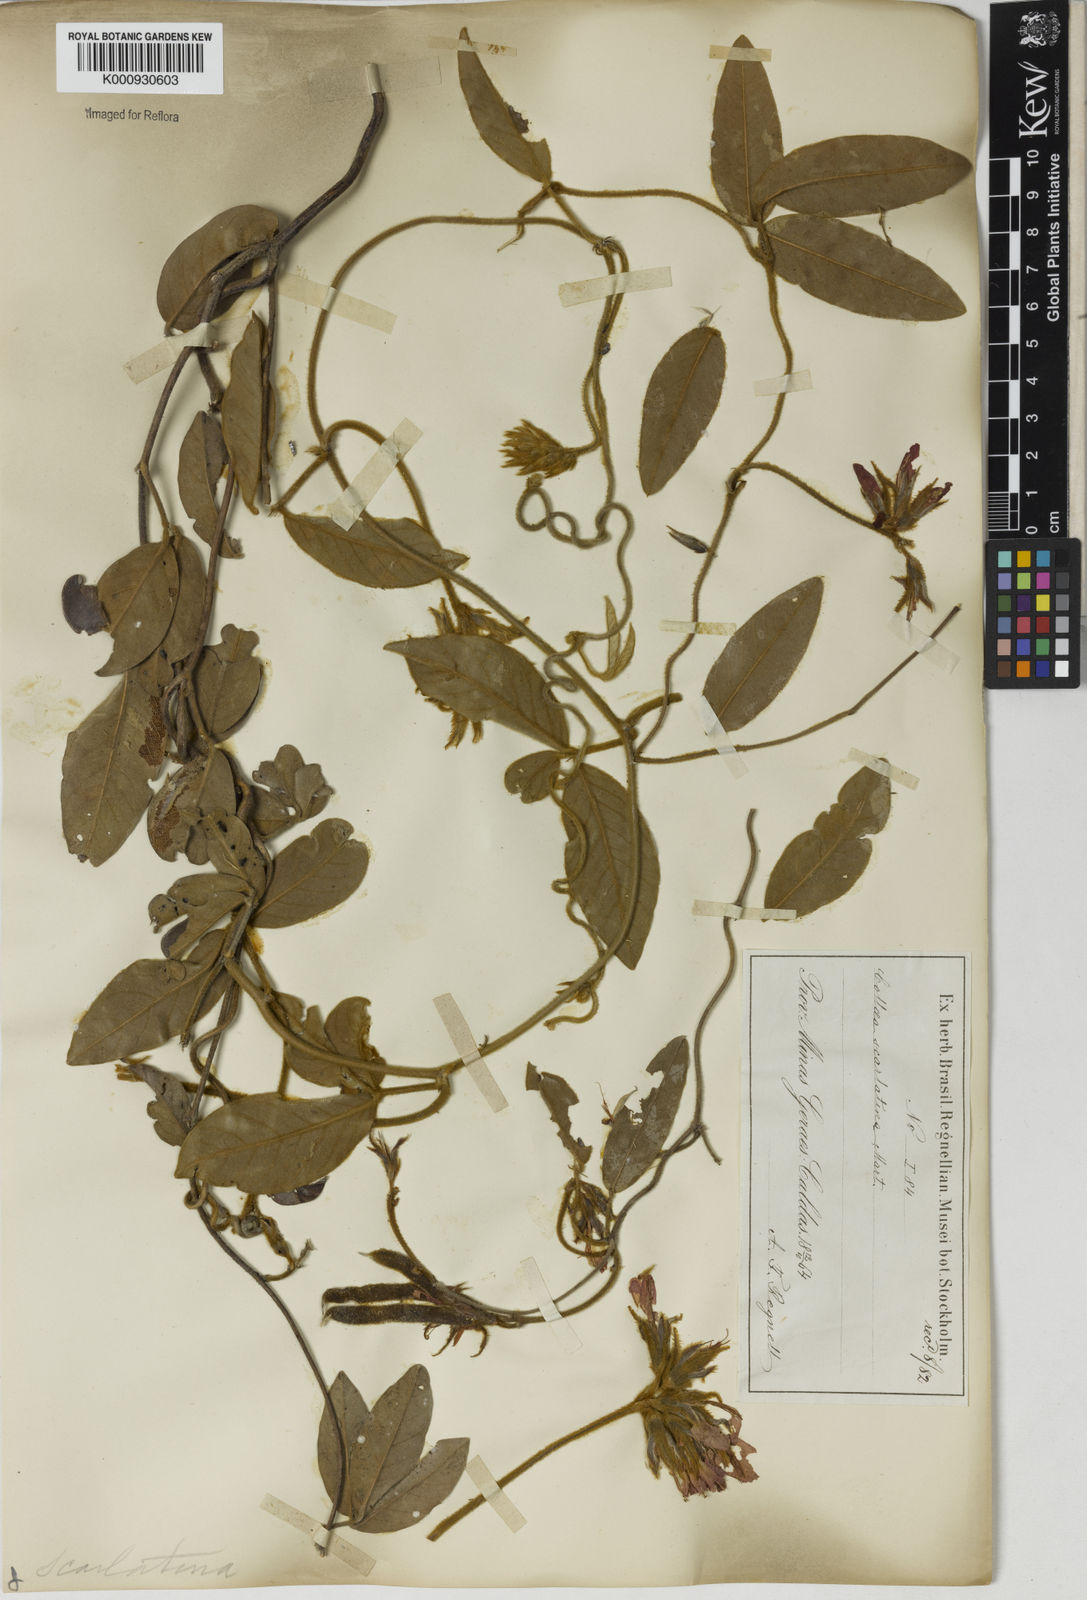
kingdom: Plantae
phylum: Tracheophyta
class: Magnoliopsida
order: Fabales
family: Fabaceae
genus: Betencourtia
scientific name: Betencourtia scarlatina
